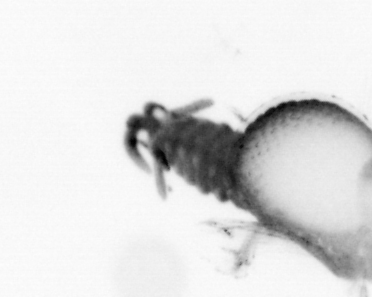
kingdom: Animalia
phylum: Annelida
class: Polychaeta
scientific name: Polychaeta
